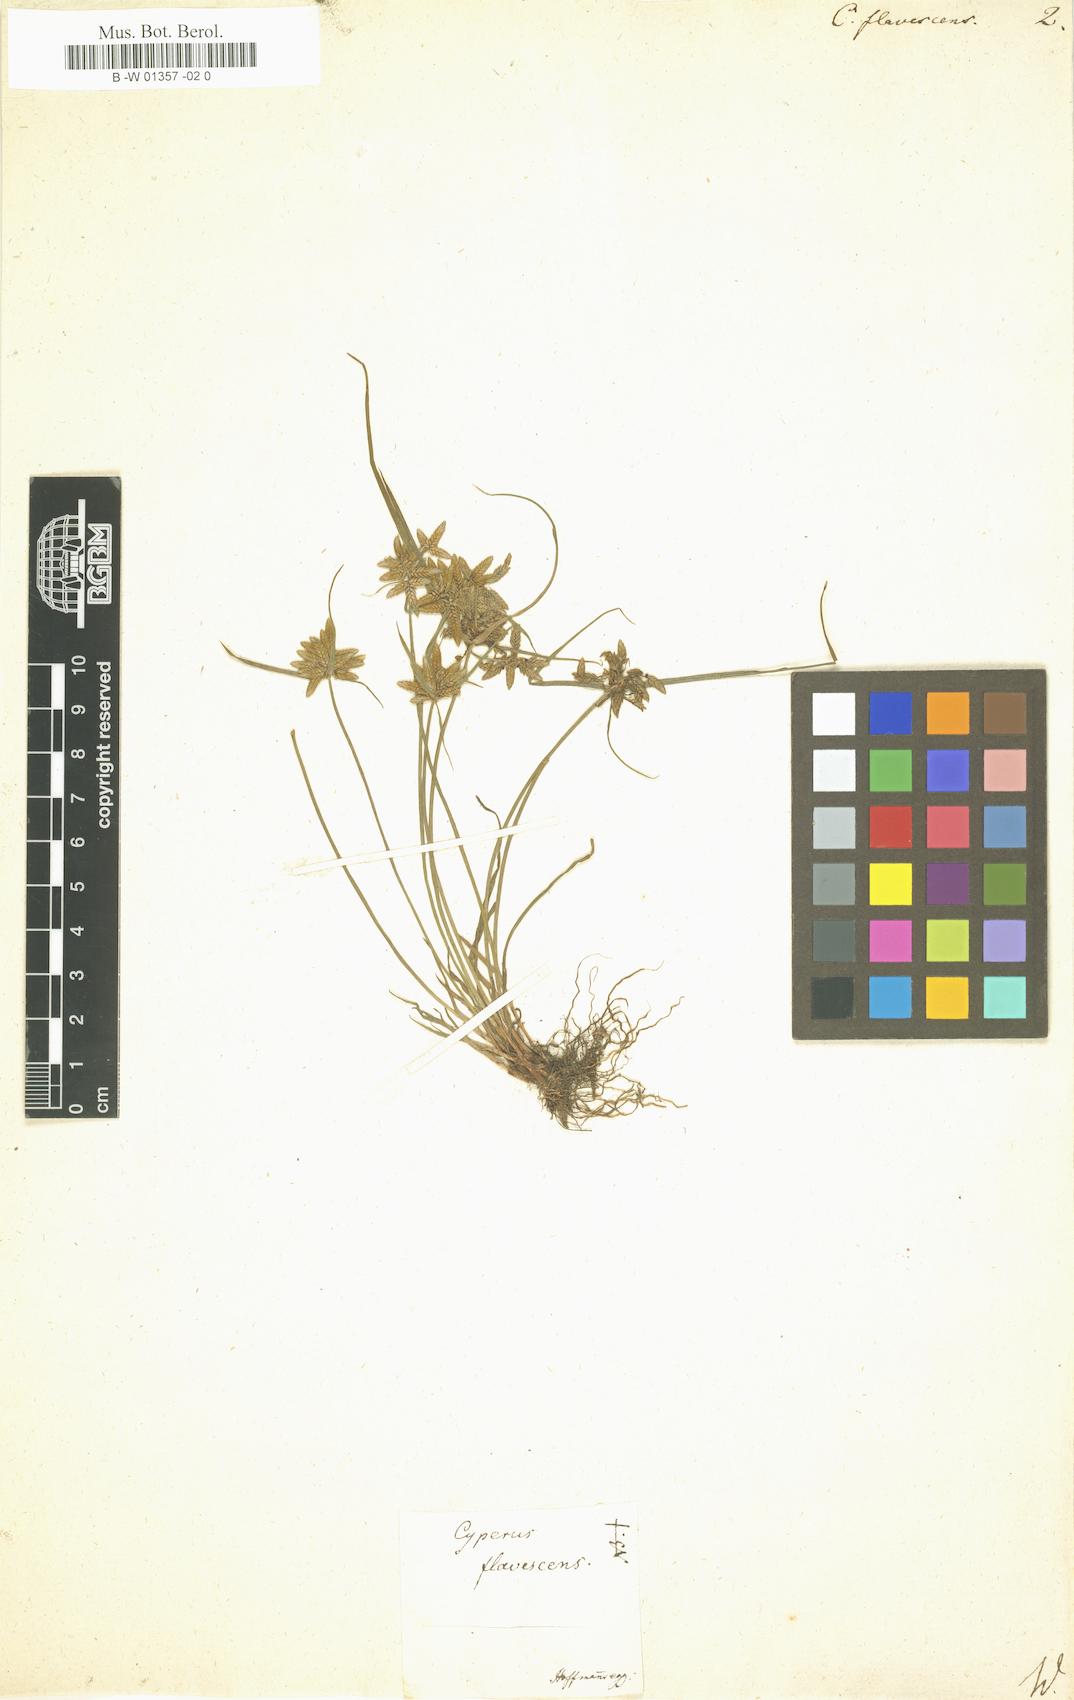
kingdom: Plantae
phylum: Tracheophyta
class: Liliopsida
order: Poales
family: Cyperaceae
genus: Cyperus
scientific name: Cyperus flavescens
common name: Yellow galingale
